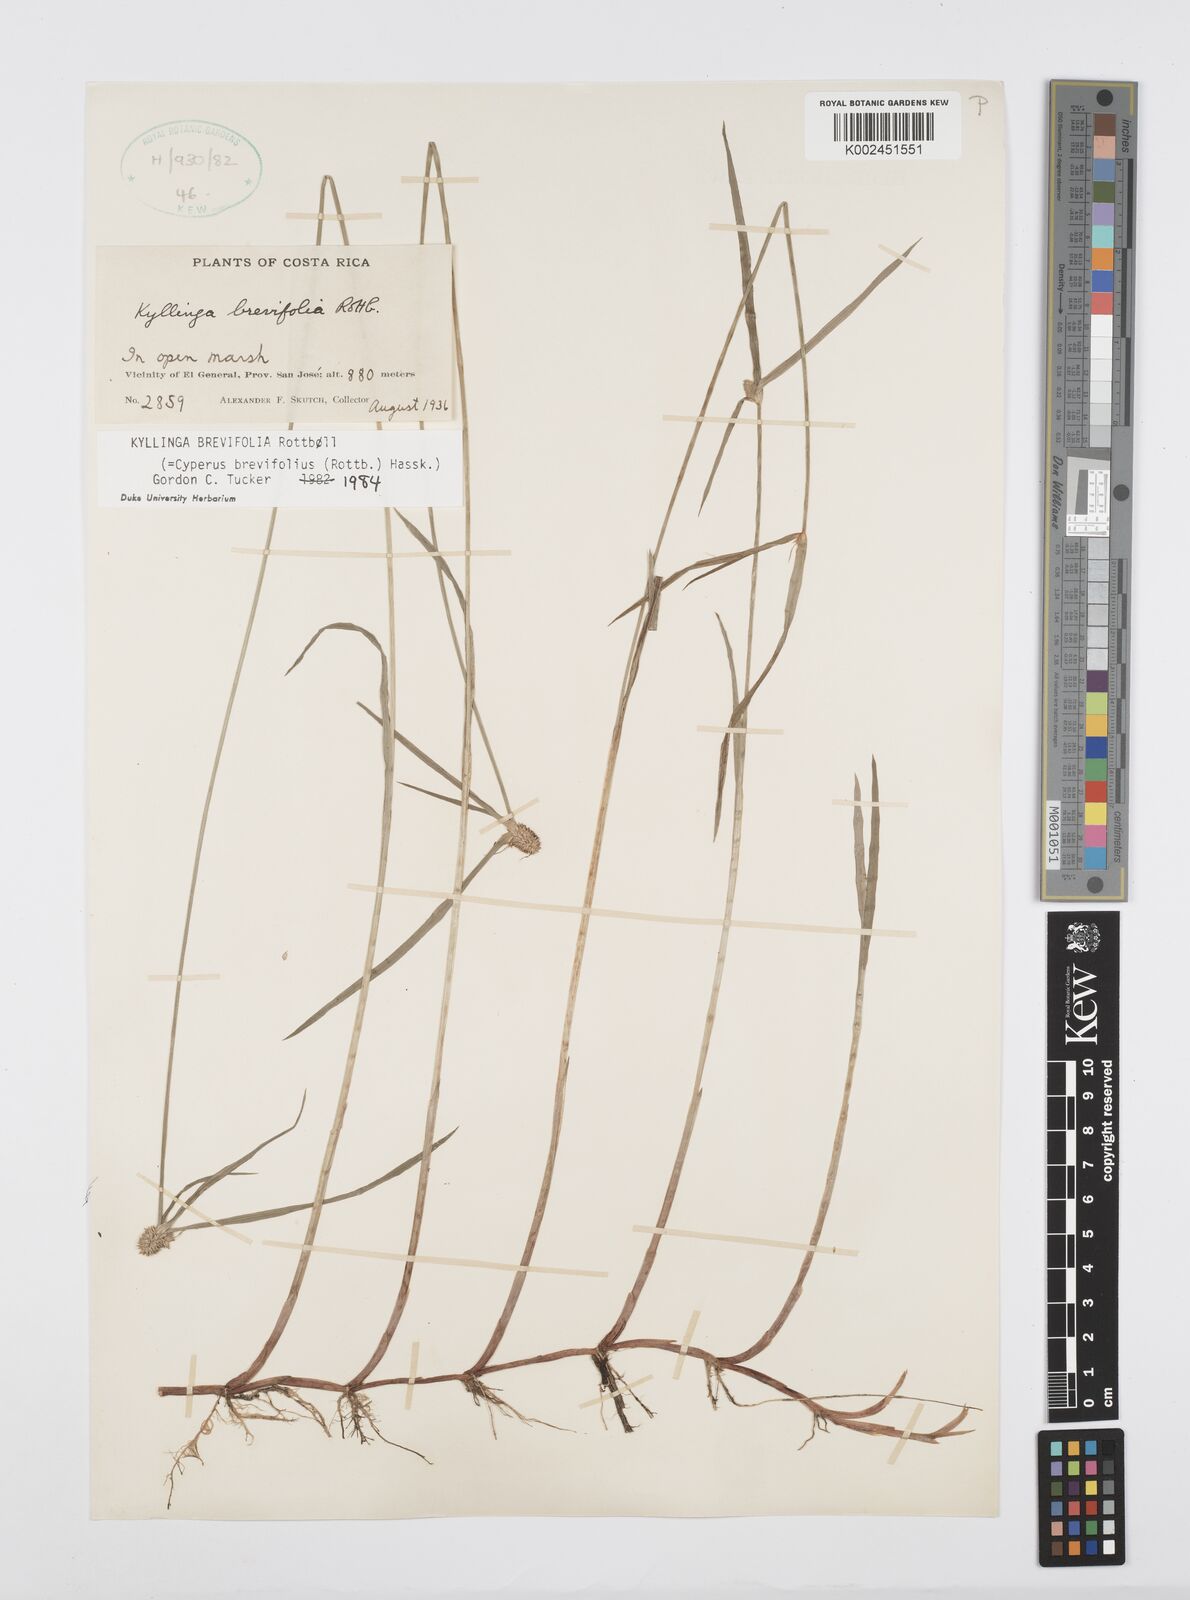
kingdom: Plantae
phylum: Tracheophyta
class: Liliopsida
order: Poales
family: Cyperaceae
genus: Cyperus
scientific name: Cyperus brevifolius
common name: Globe kyllinga
